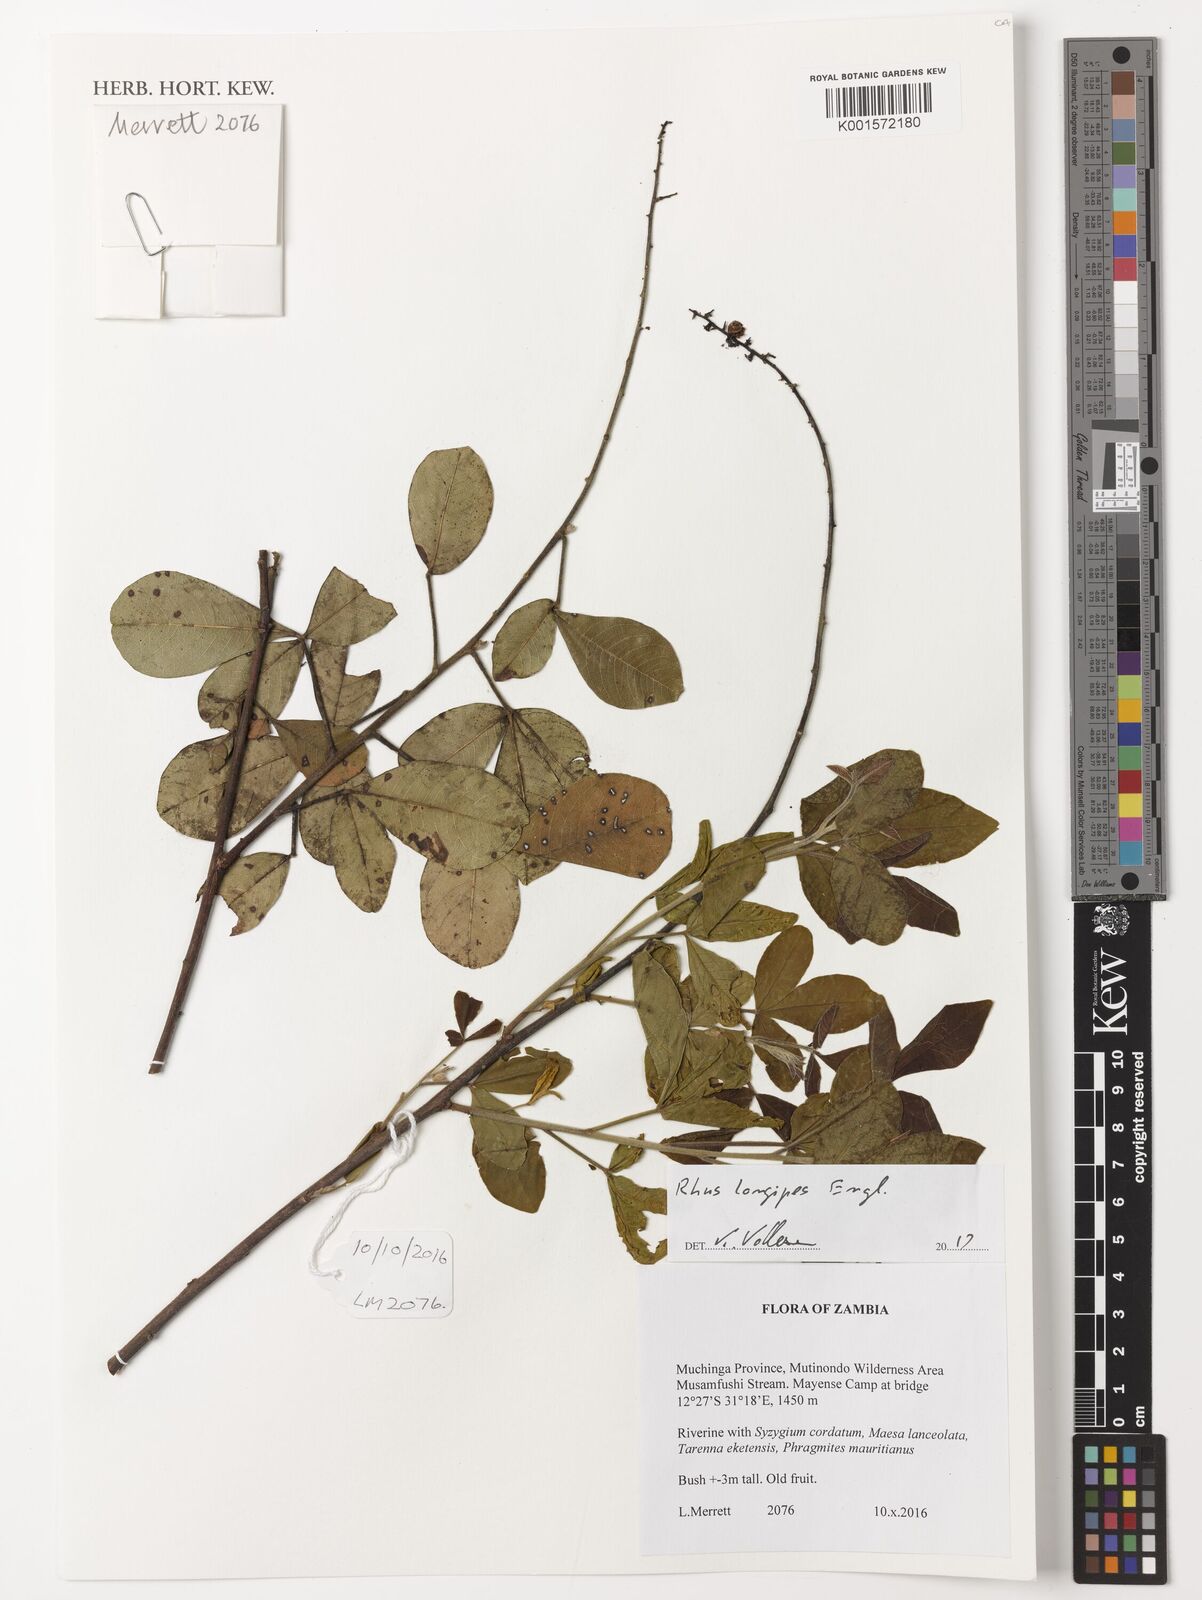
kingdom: Plantae
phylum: Tracheophyta
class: Magnoliopsida
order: Sapindales
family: Anacardiaceae
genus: Searsia
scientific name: Searsia longipes
